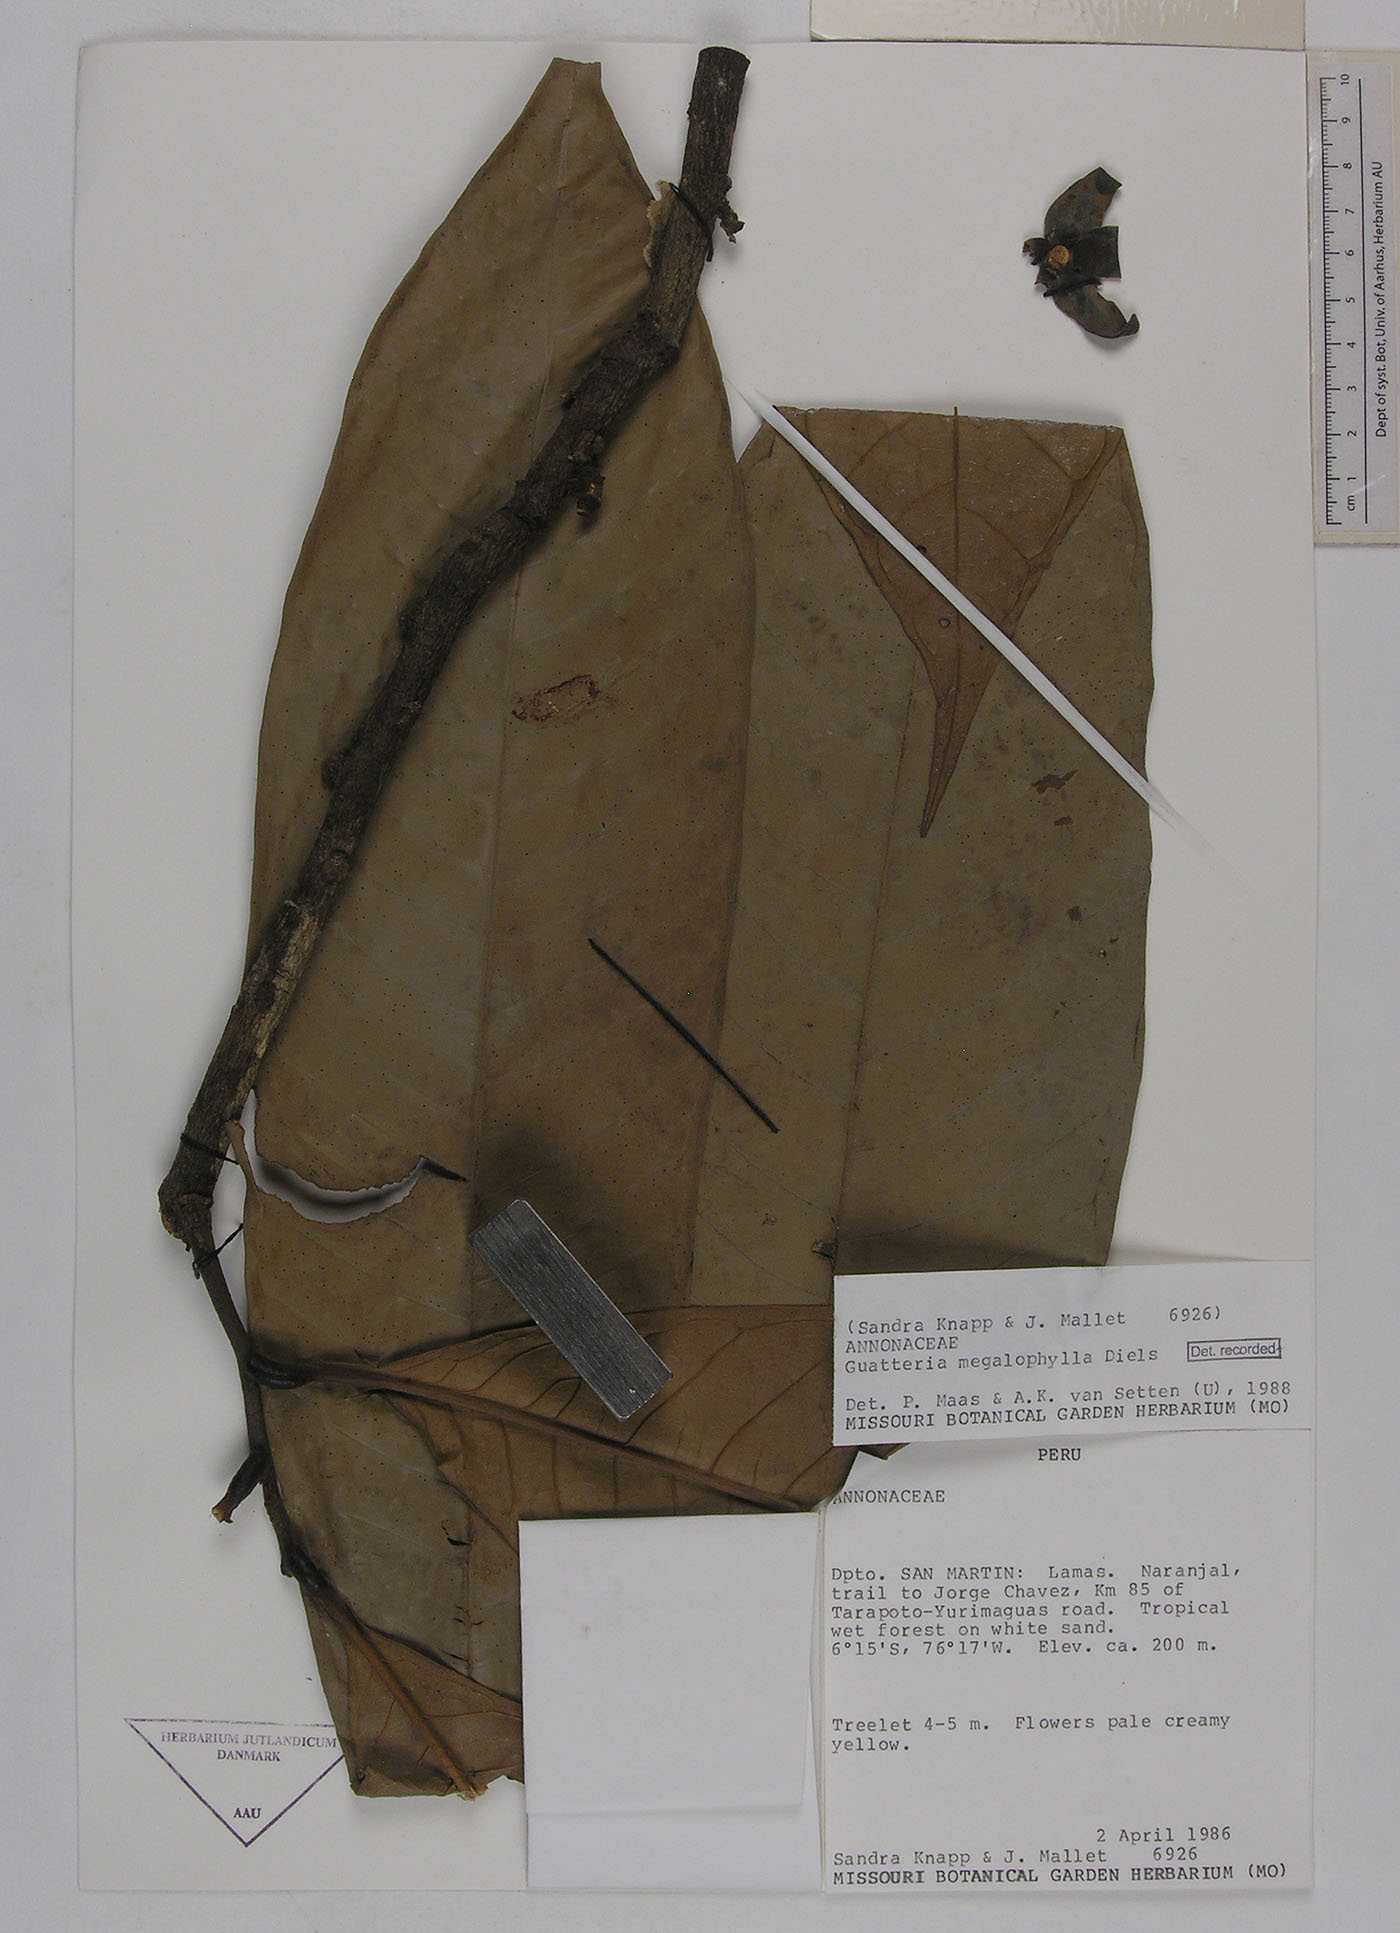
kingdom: Plantae
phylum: Tracheophyta
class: Magnoliopsida
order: Magnoliales
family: Annonaceae
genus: Guatteria
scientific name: Guatteria megalophylla
